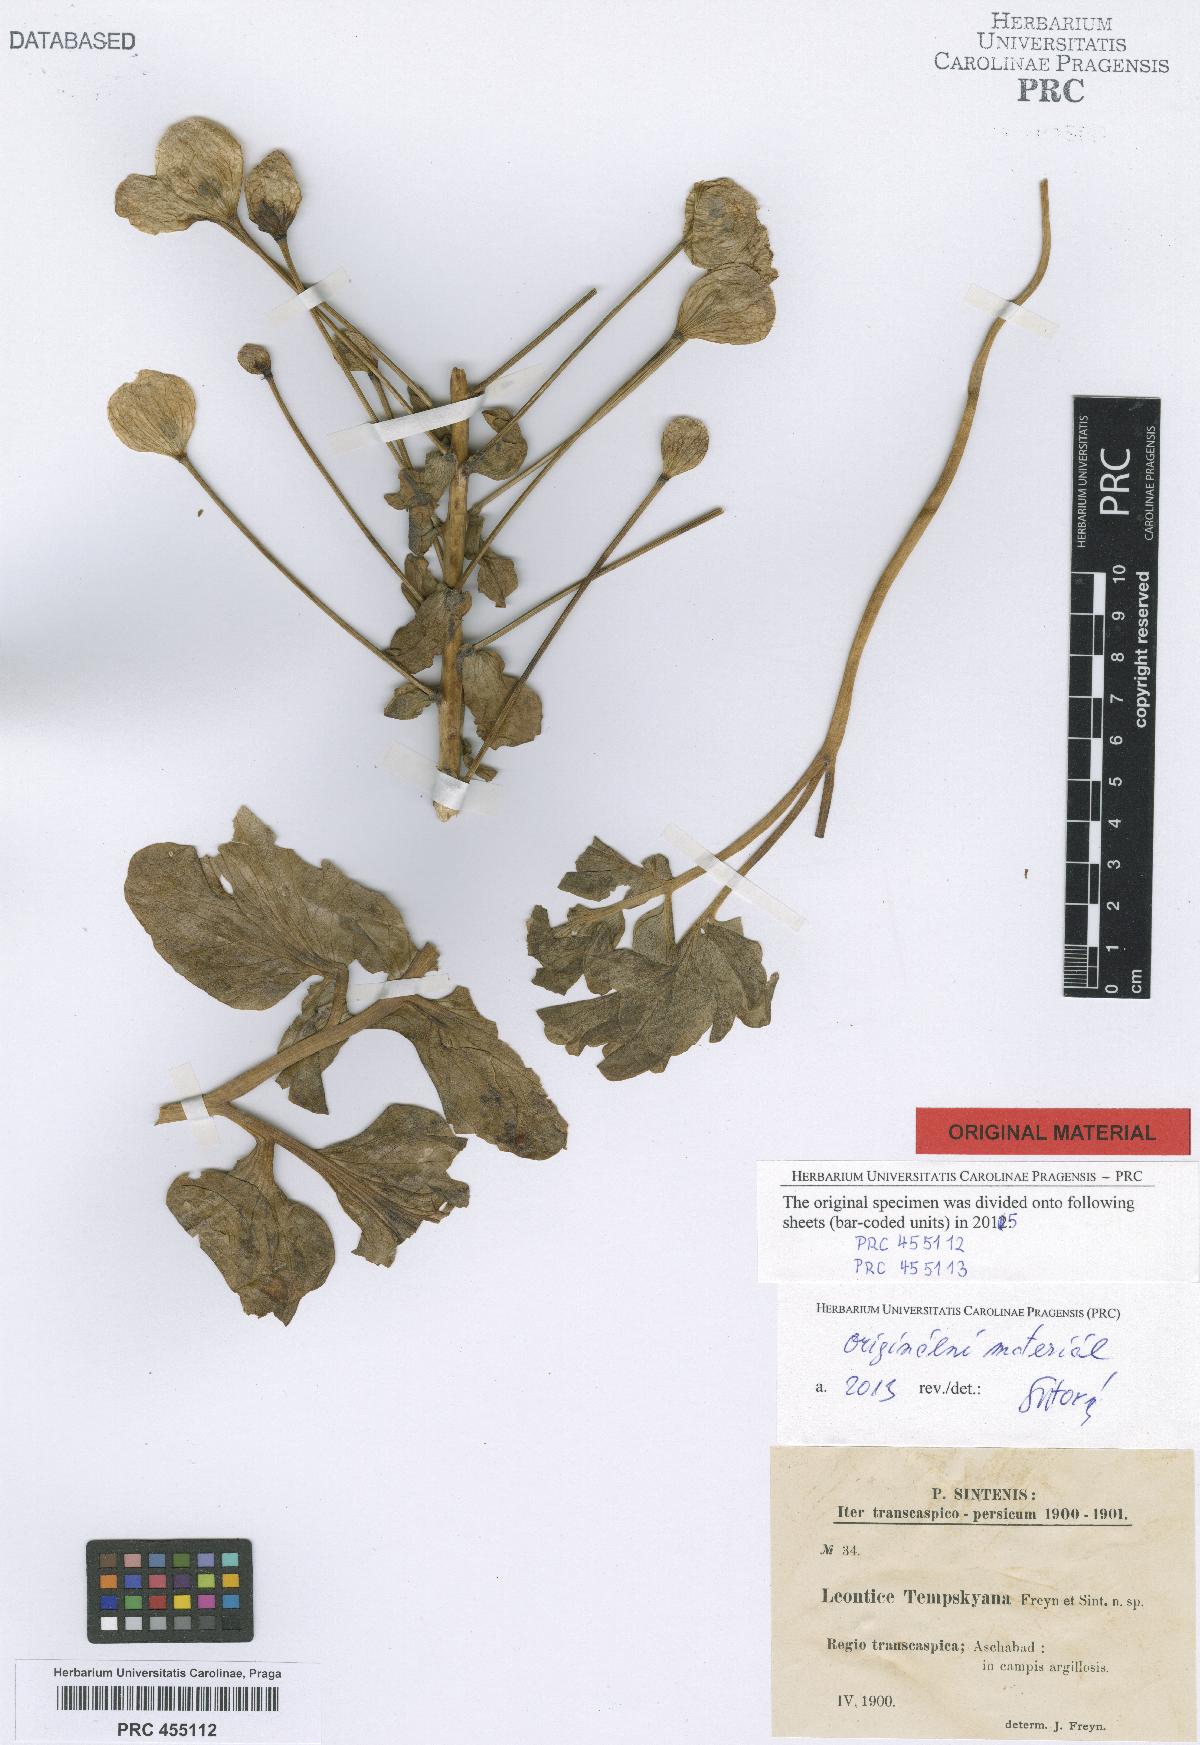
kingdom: Plantae
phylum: Tracheophyta
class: Magnoliopsida
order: Ranunculales
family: Berberidaceae
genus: Leontice
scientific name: Leontice tempskyana
